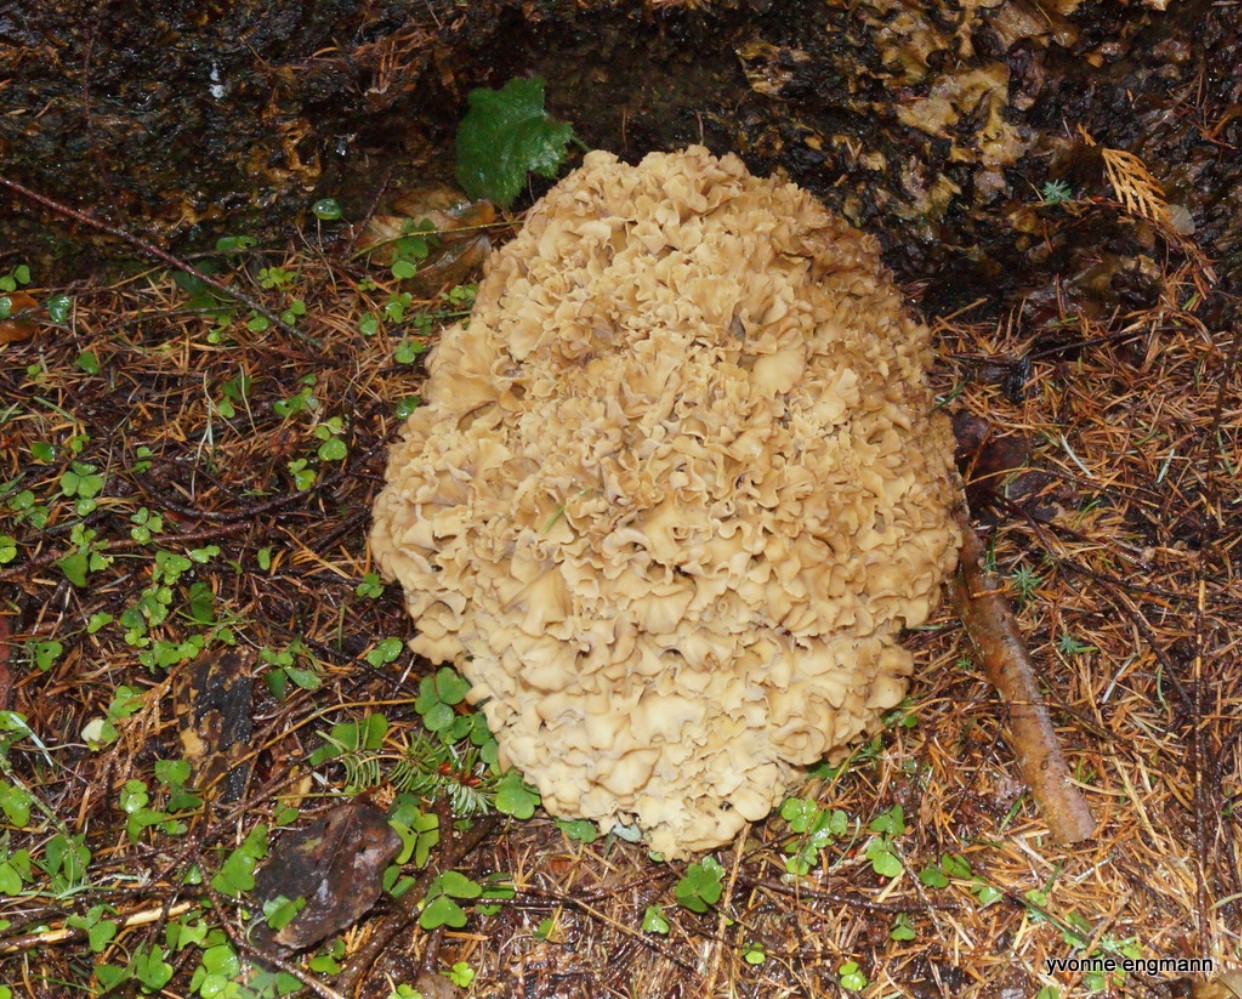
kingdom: Fungi
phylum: Basidiomycota
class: Agaricomycetes
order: Polyporales
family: Sparassidaceae
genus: Sparassis
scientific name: Sparassis crispa
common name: kruset blomkålssvamp
